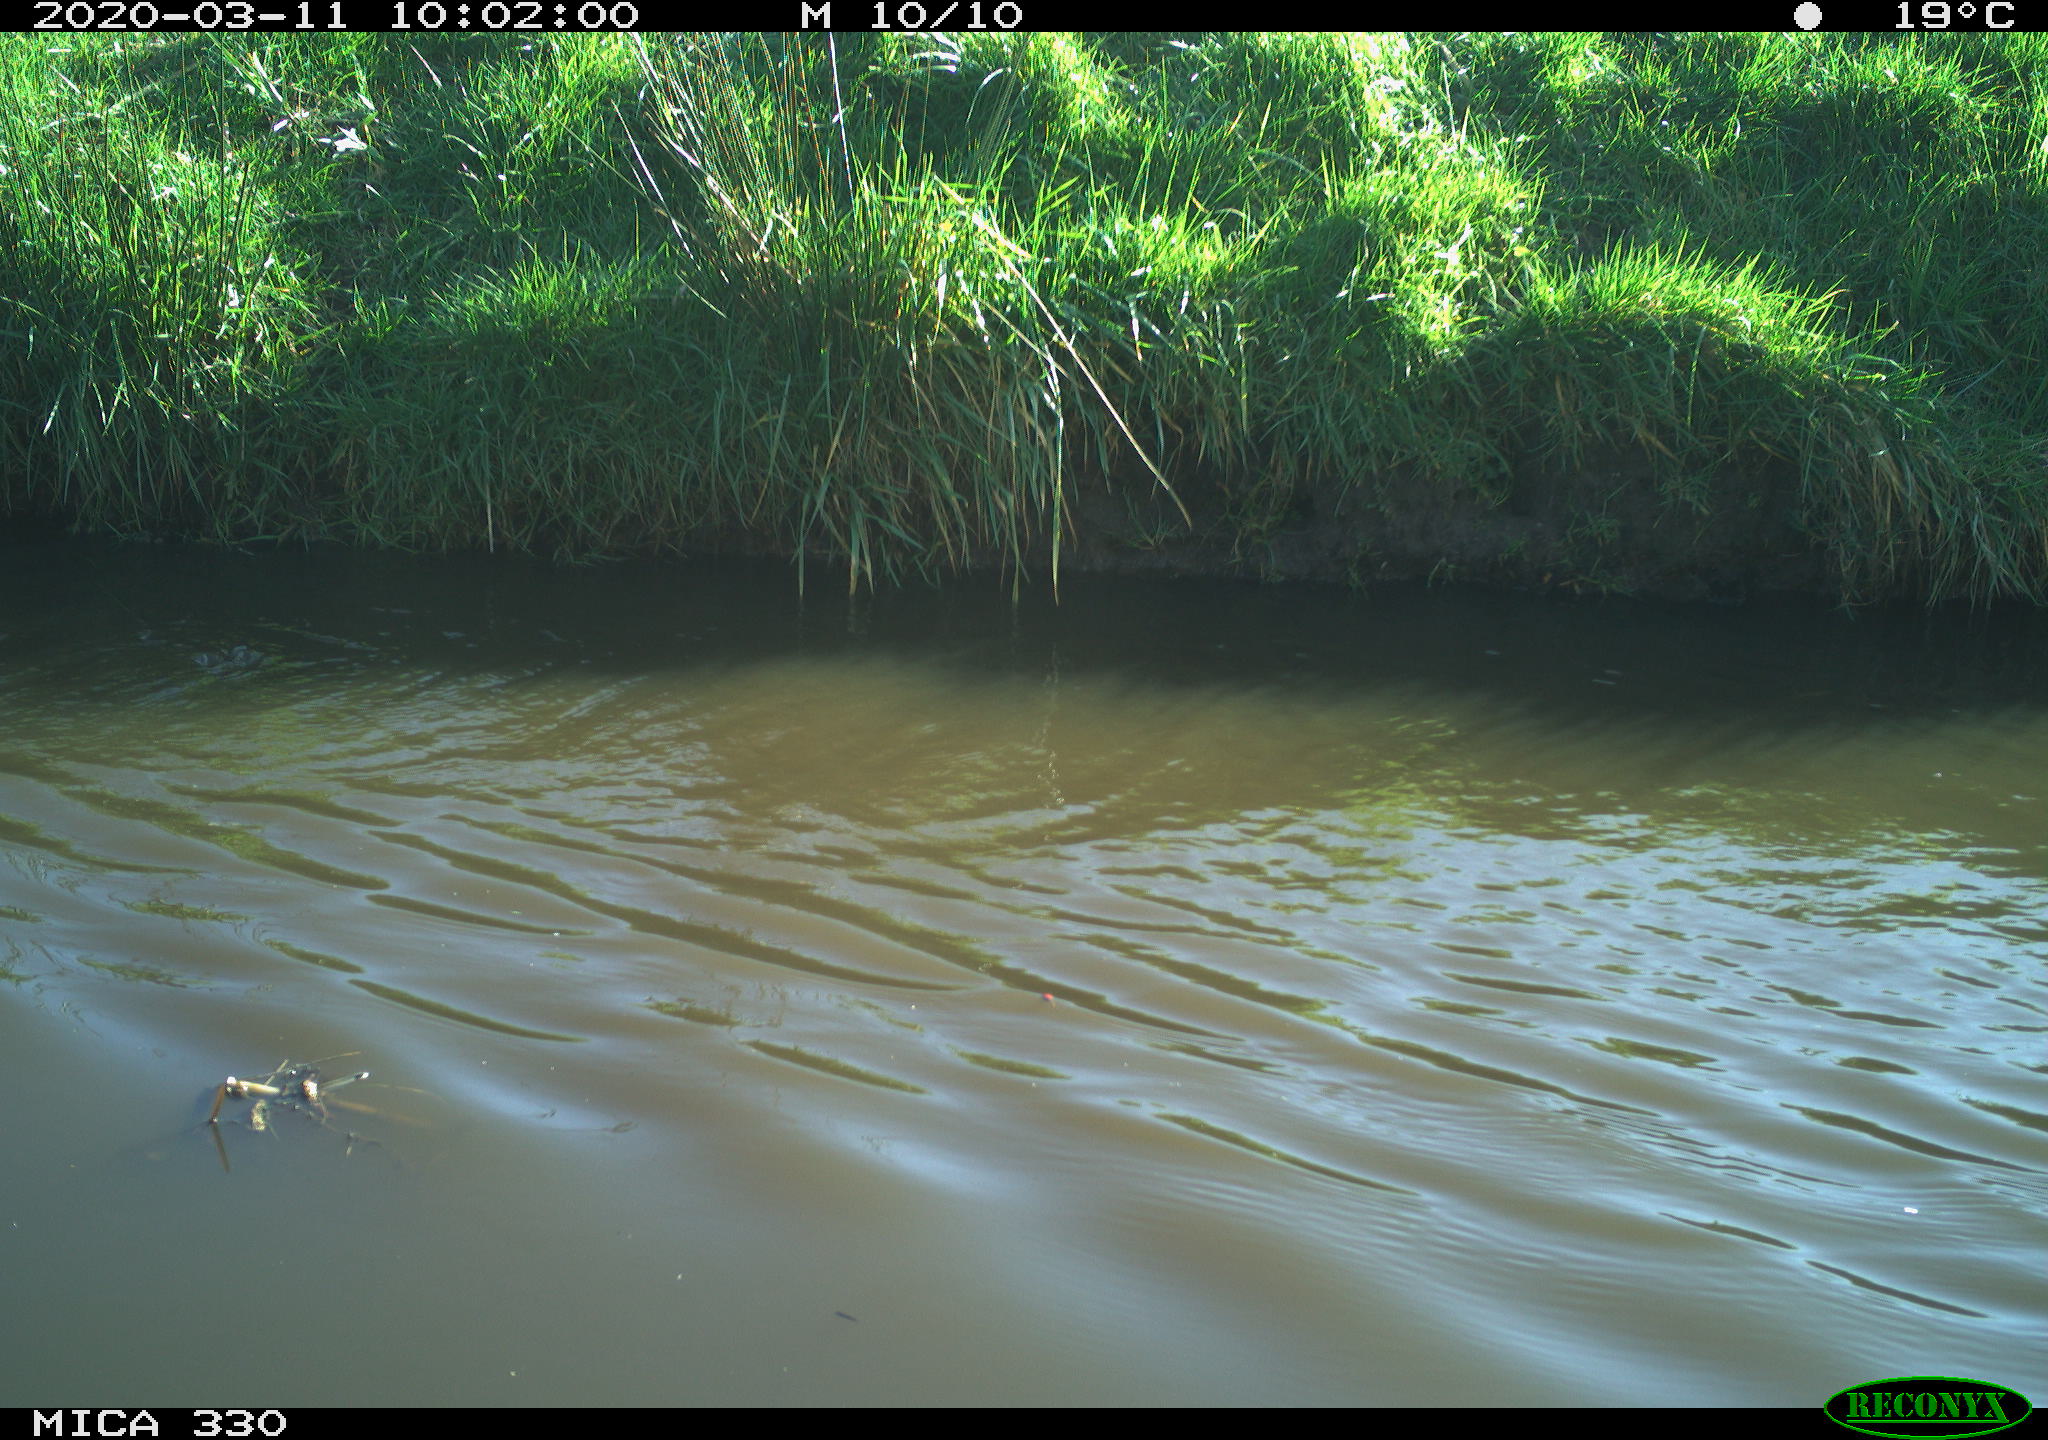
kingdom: Animalia
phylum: Chordata
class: Aves
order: Anseriformes
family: Anatidae
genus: Anas
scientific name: Anas platyrhynchos
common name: Mallard
